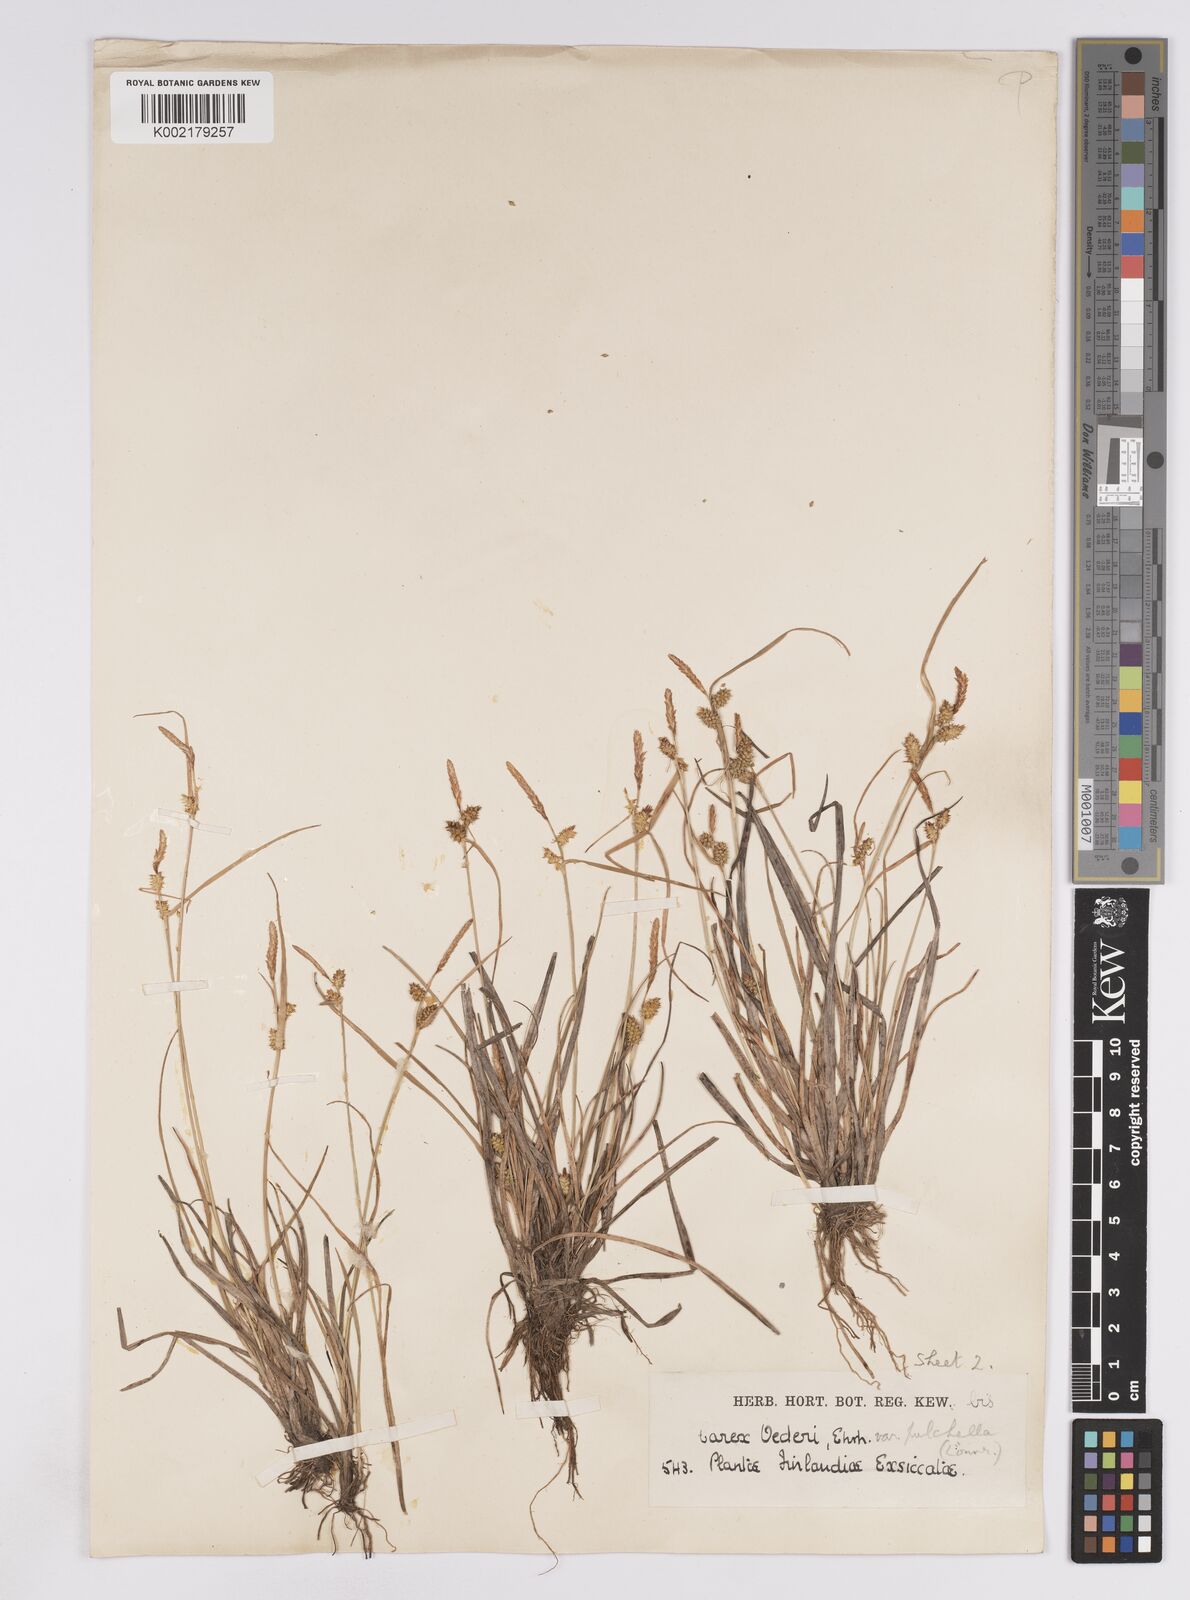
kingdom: Plantae
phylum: Tracheophyta
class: Liliopsida
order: Poales
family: Cyperaceae
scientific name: Cyperaceae
